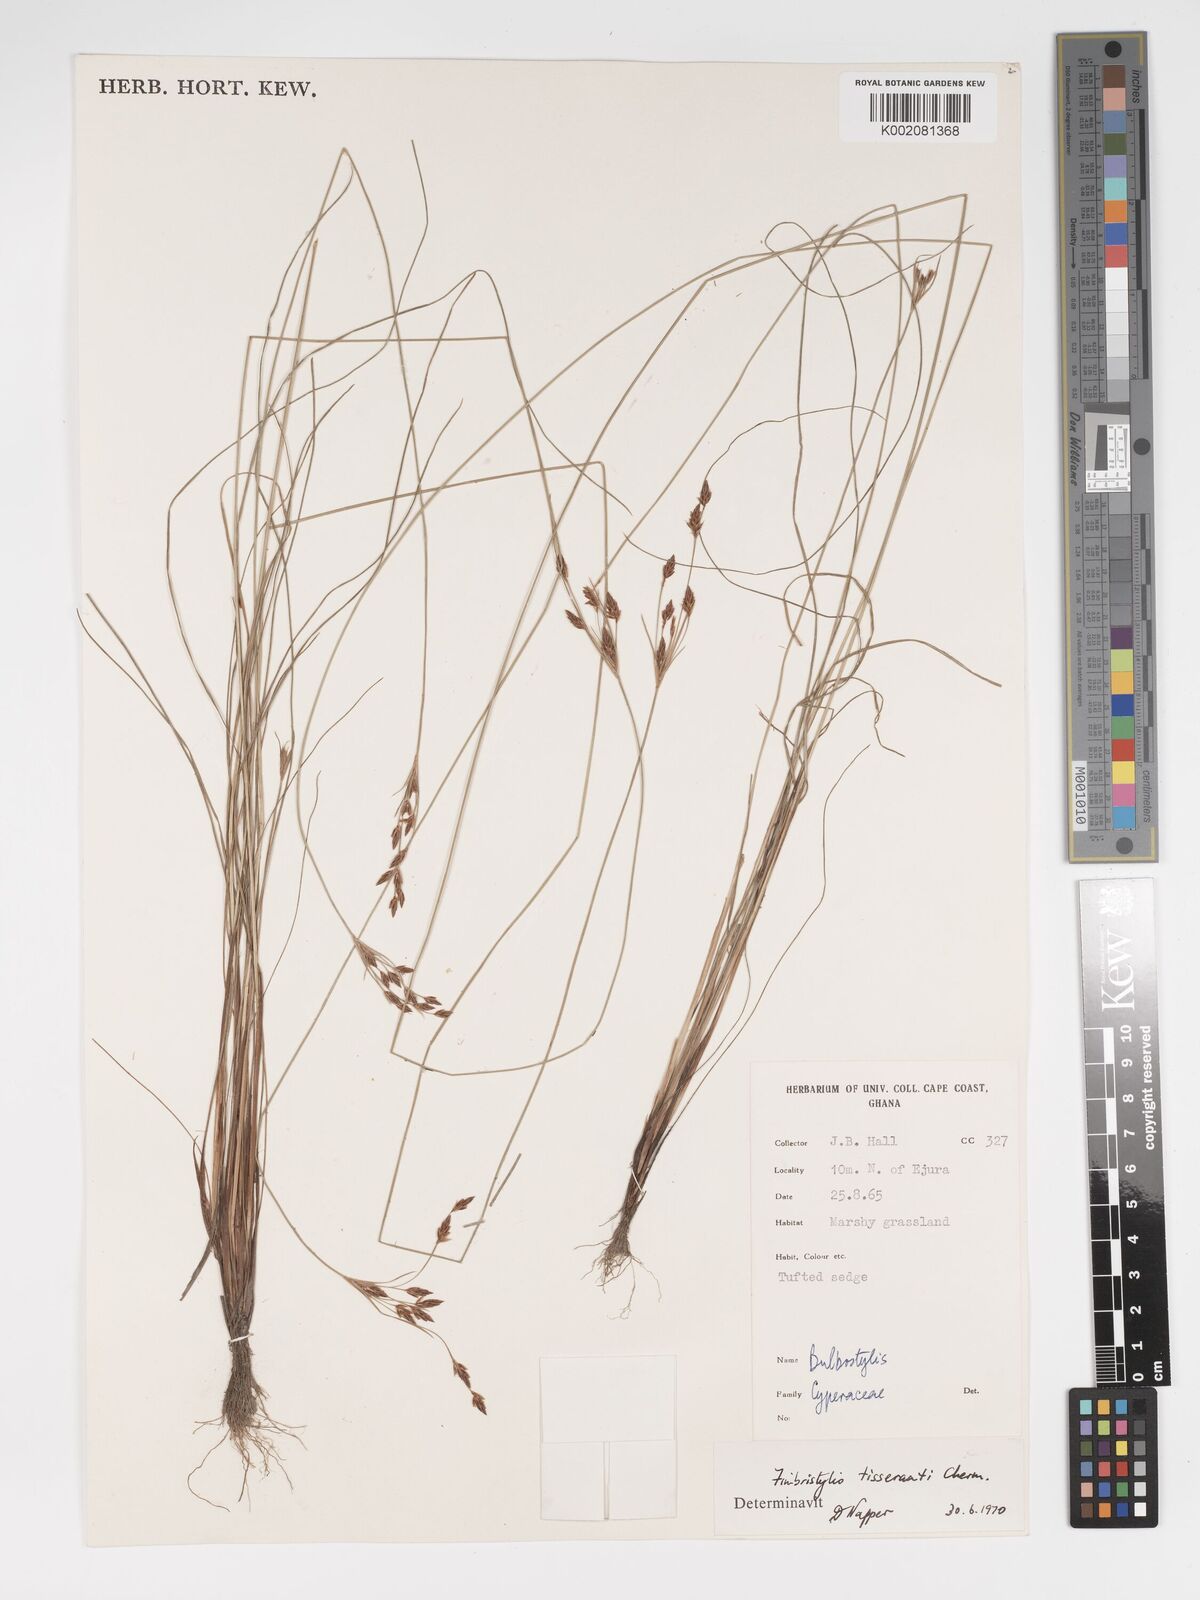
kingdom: Plantae
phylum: Tracheophyta
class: Liliopsida
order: Poales
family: Cyperaceae
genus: Bulbostylis
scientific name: Bulbostylis viridecarinata
